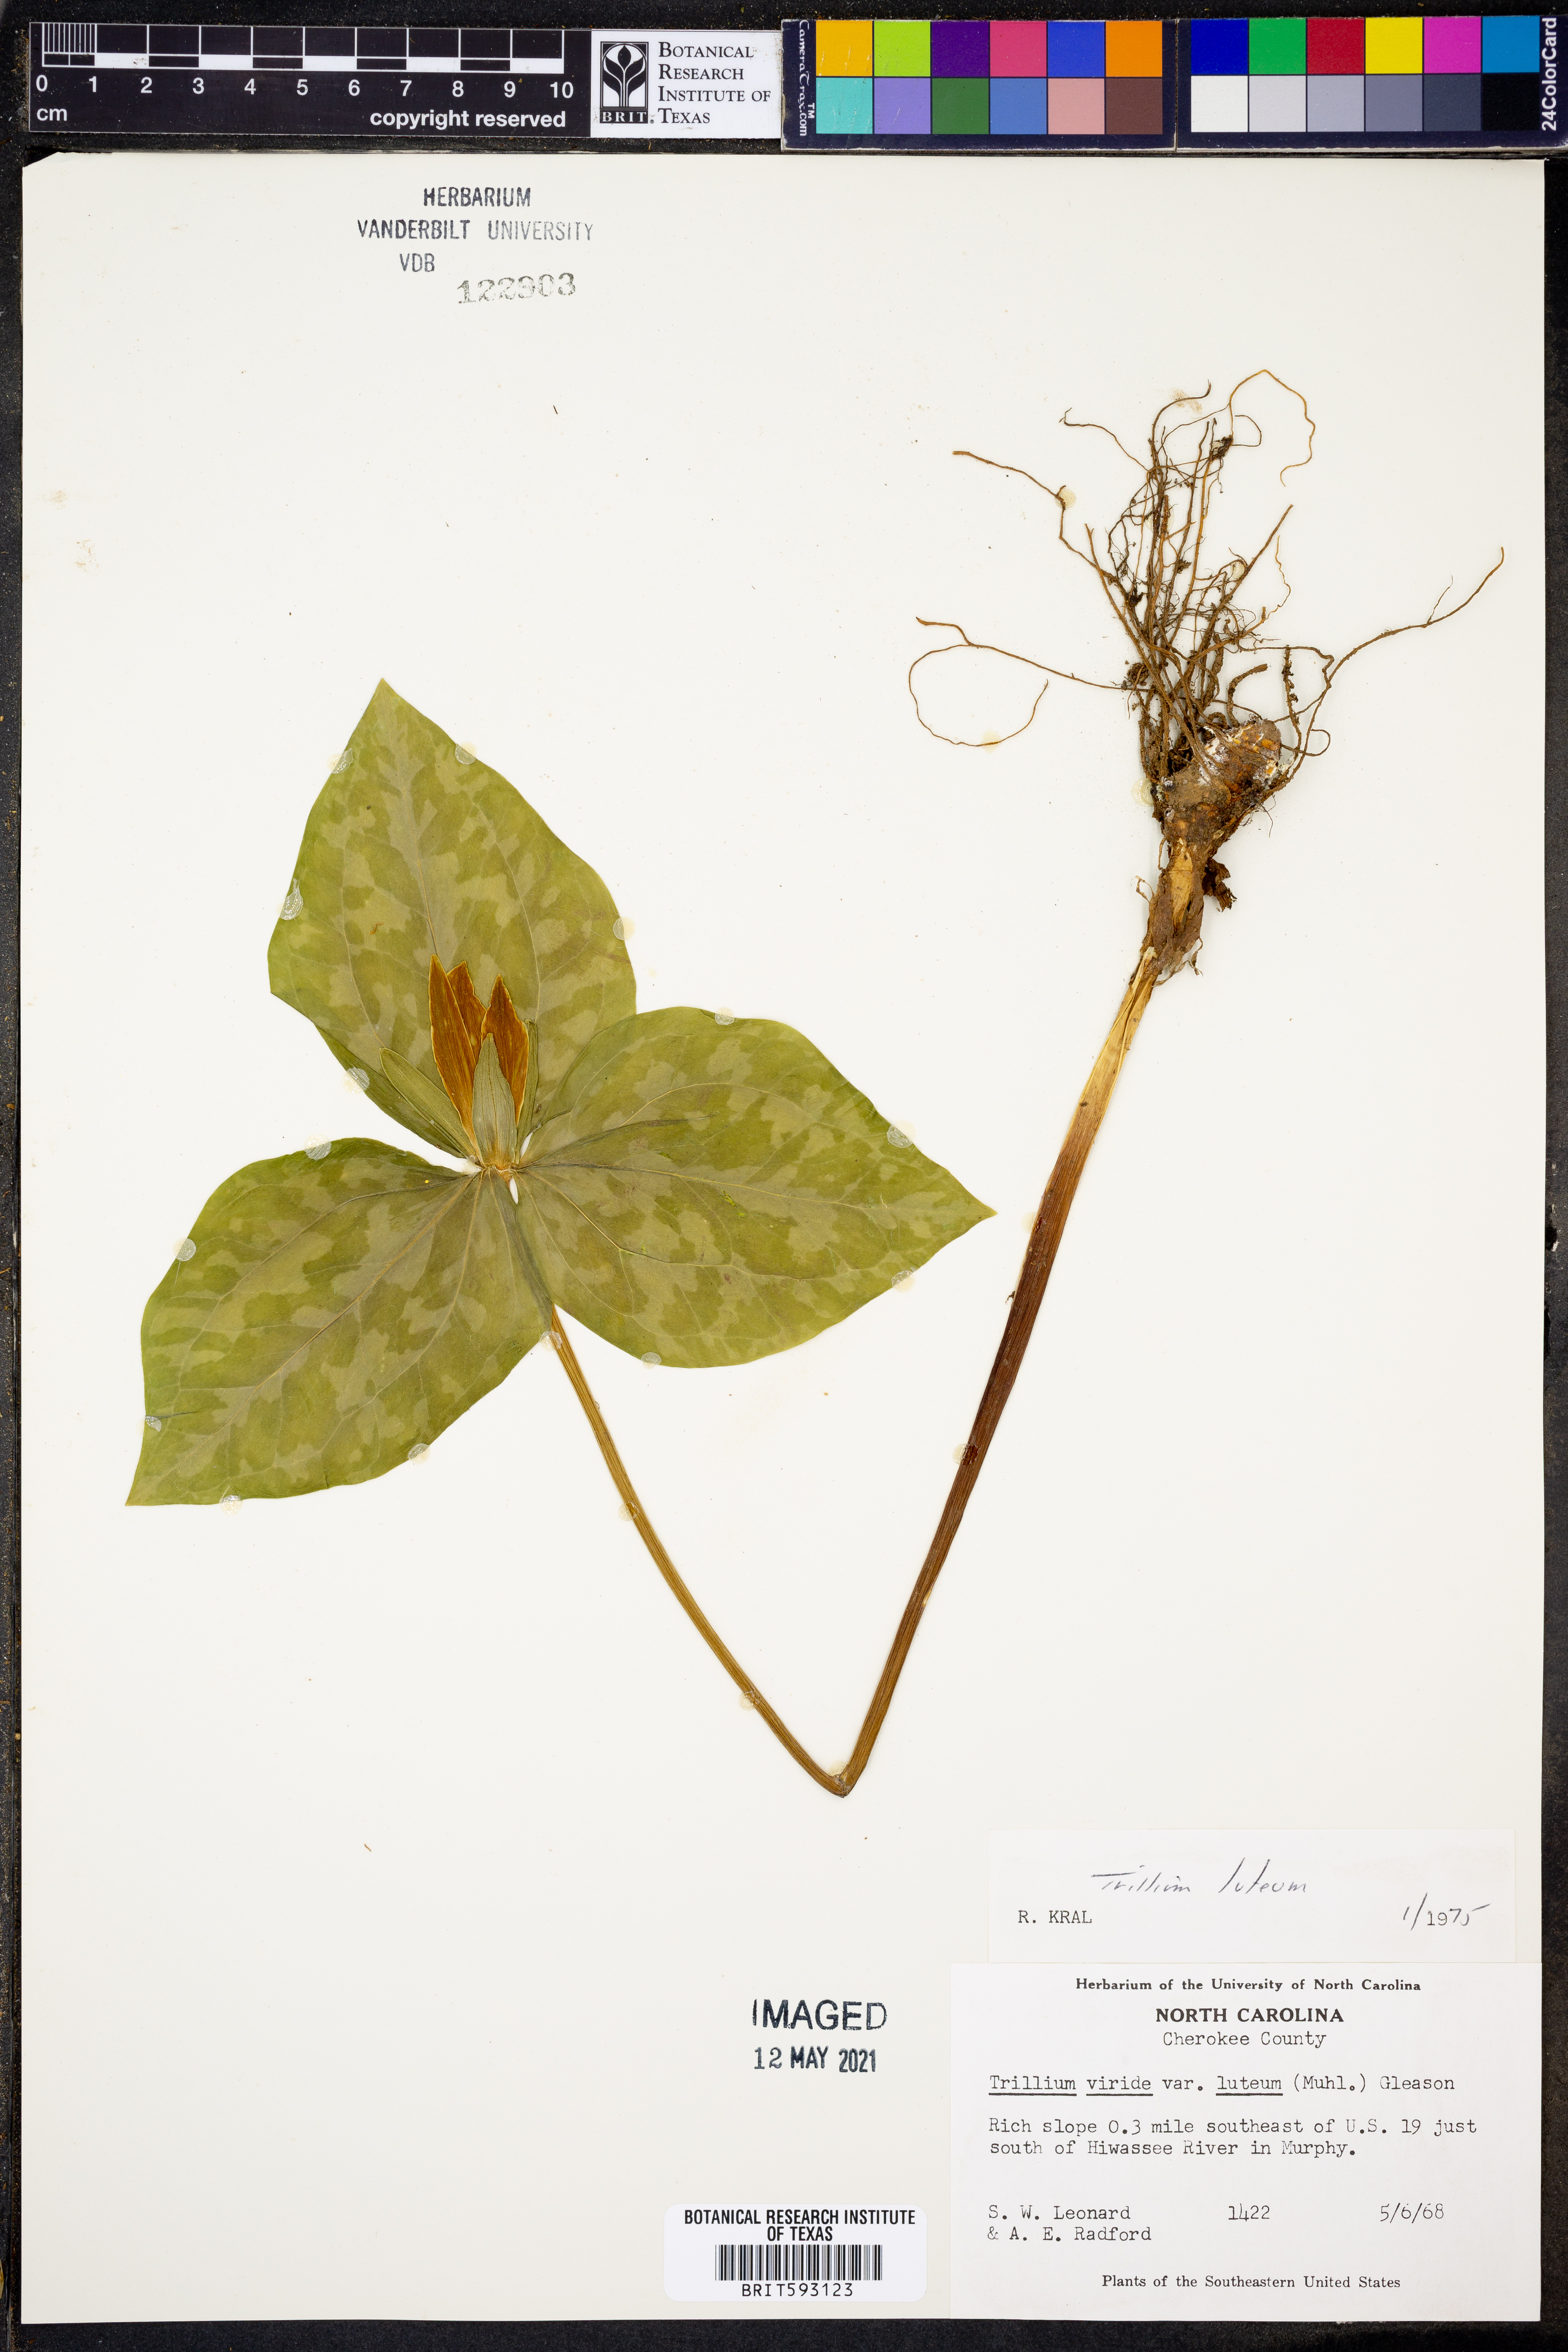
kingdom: Plantae
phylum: Tracheophyta
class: Liliopsida
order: Liliales
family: Melanthiaceae
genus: Trillium
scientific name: Trillium luteum
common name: Wax trillium
